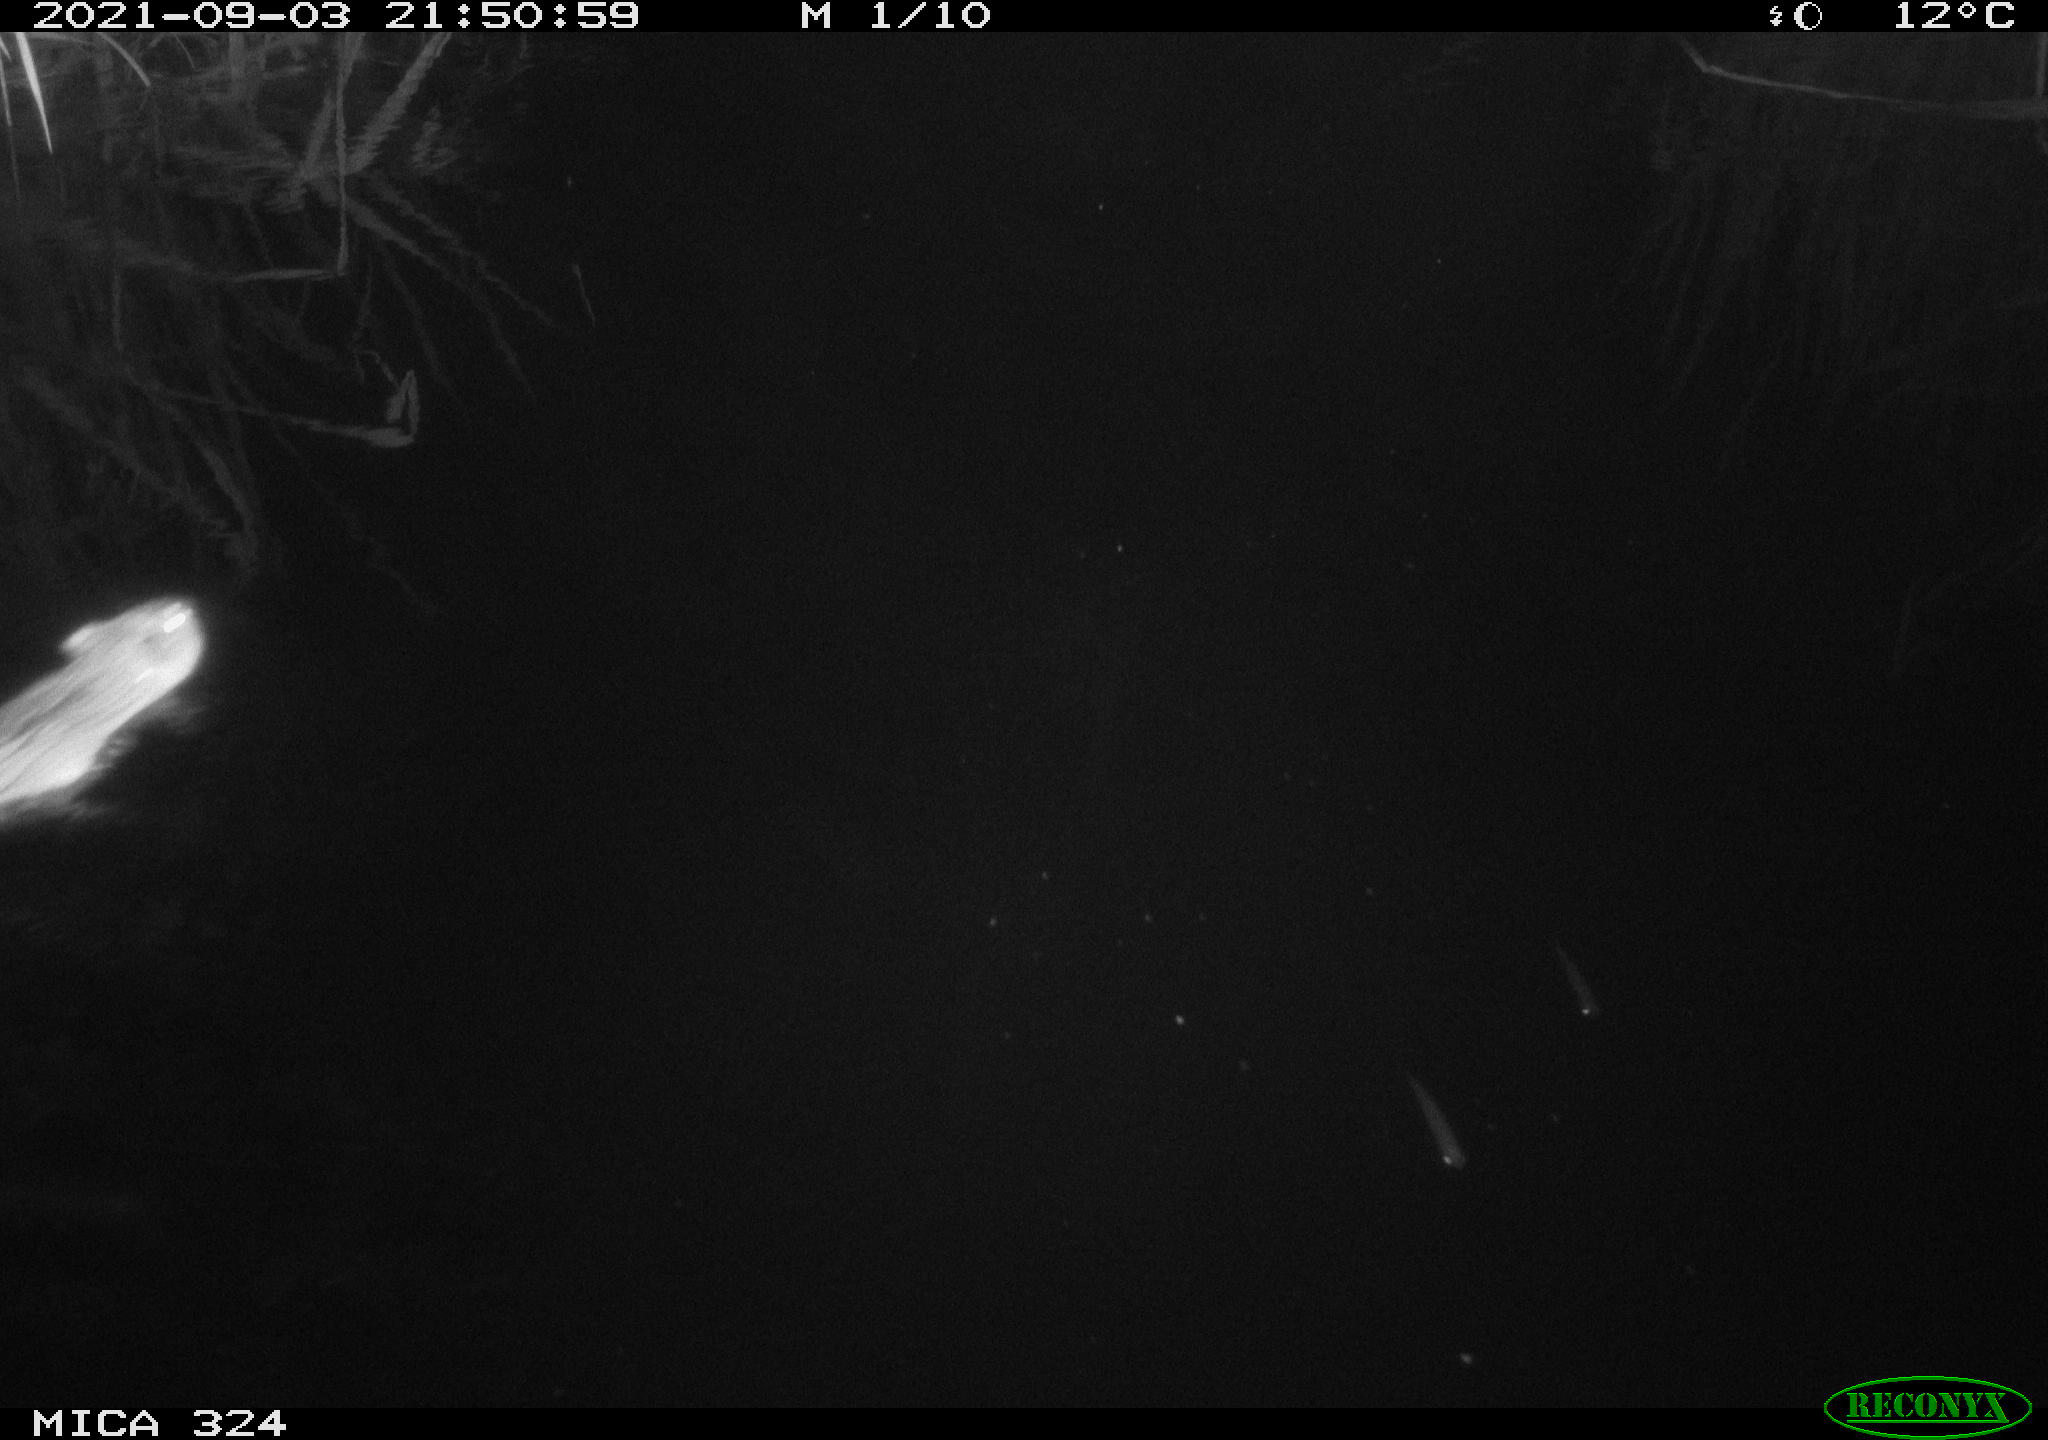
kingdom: Animalia
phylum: Chordata
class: Mammalia
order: Rodentia
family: Cricetidae
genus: Ondatra
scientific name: Ondatra zibethicus
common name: Muskrat
